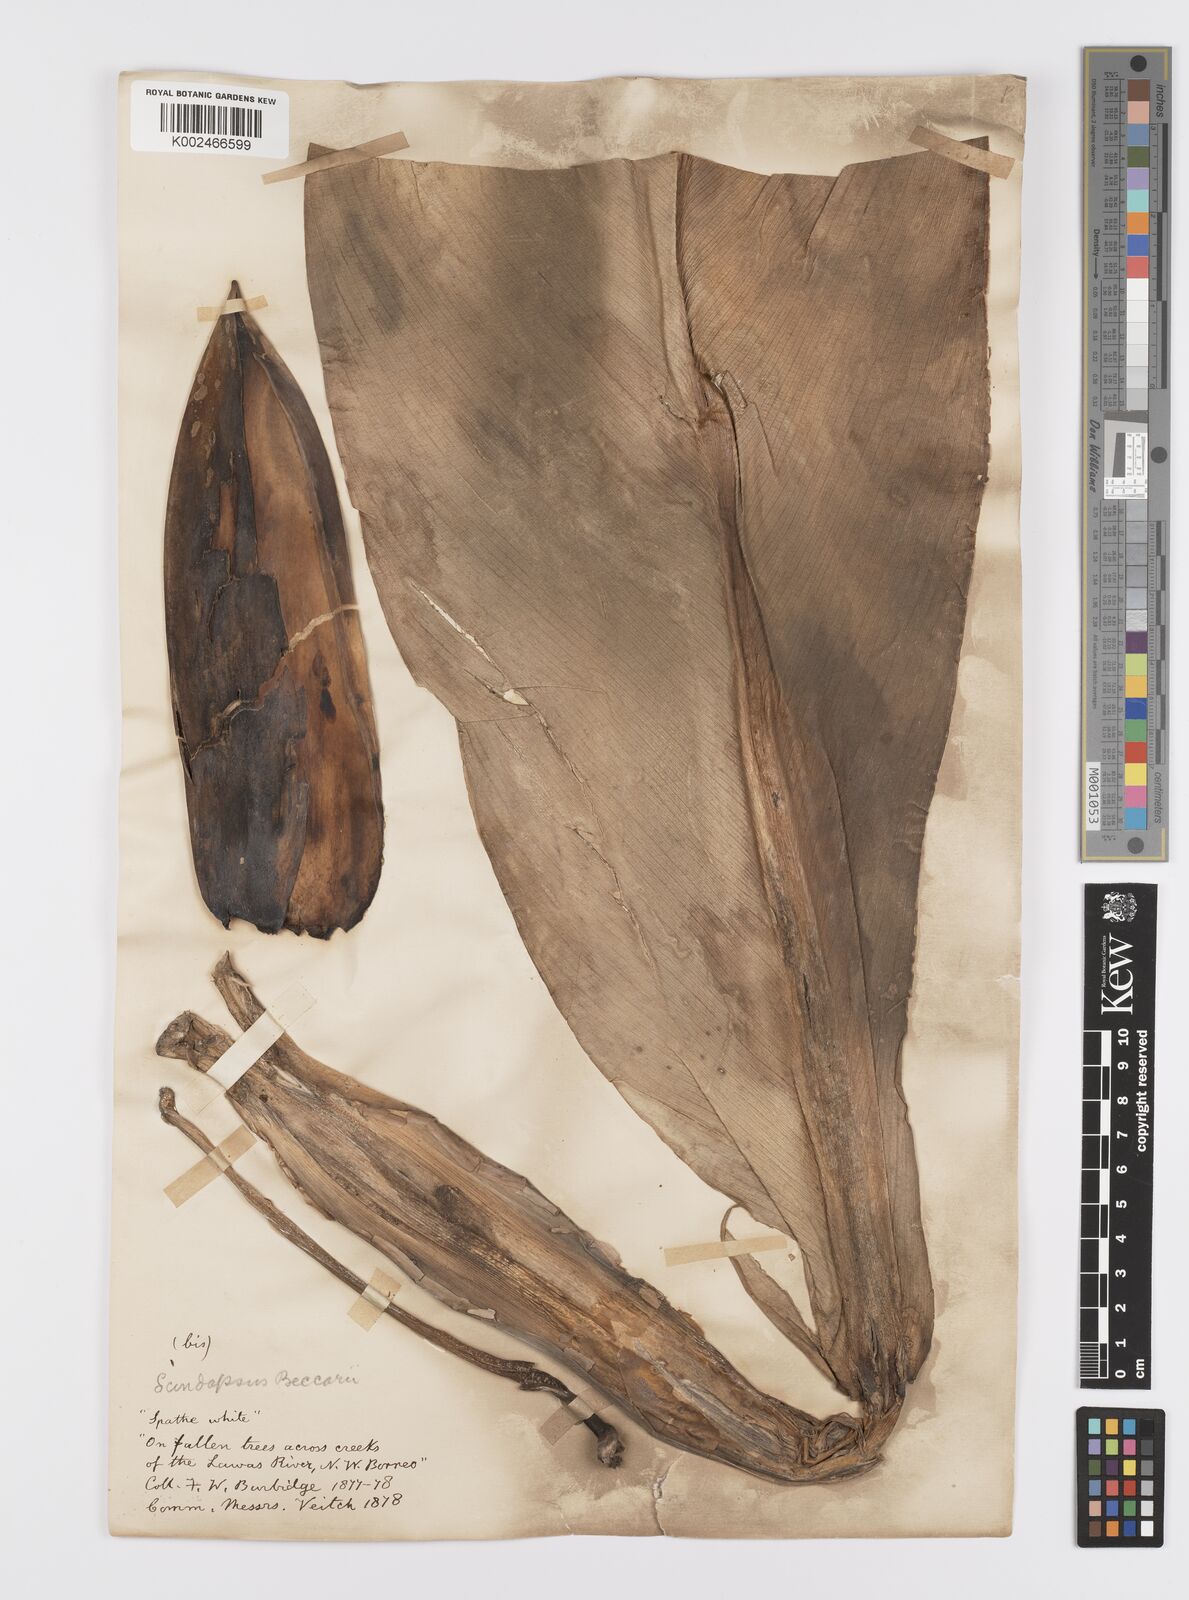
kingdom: Plantae
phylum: Tracheophyta
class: Liliopsida
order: Alismatales
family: Araceae
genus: Scindapsus
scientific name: Scindapsus beccarii
